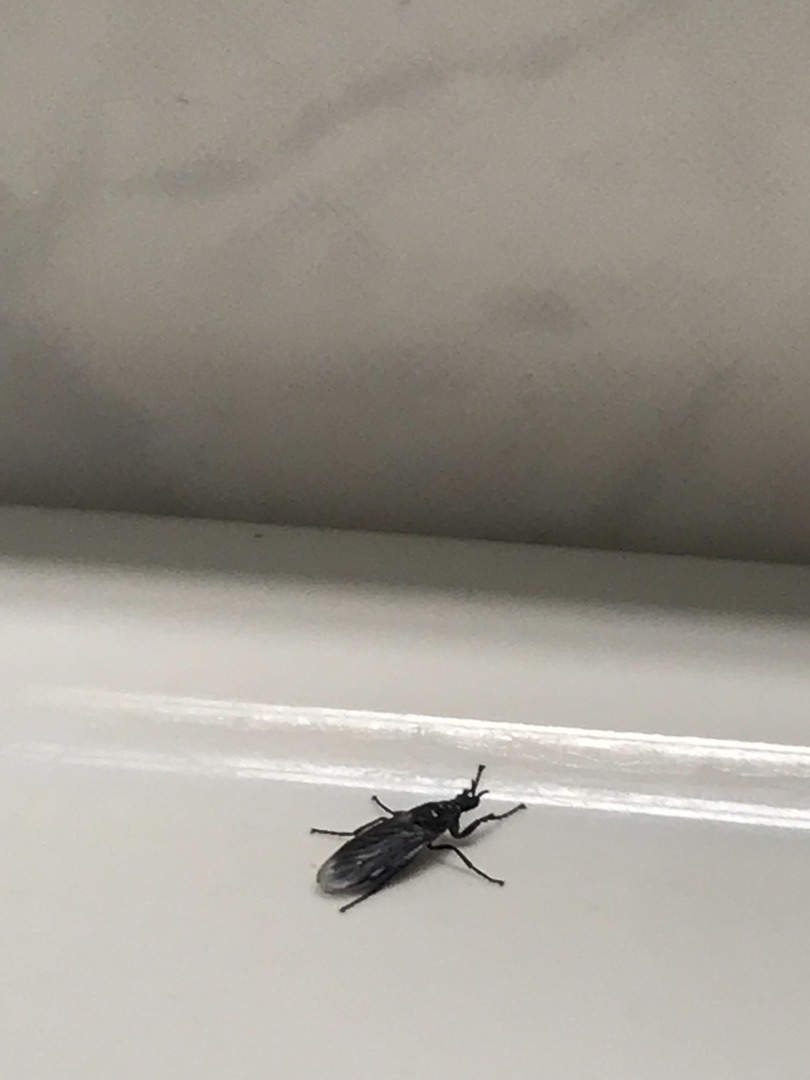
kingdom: Animalia
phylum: Arthropoda
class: Insecta
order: Diptera
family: Bibionidae
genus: Dilophus
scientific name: Dilophus febrilis
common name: Græshårmyg
